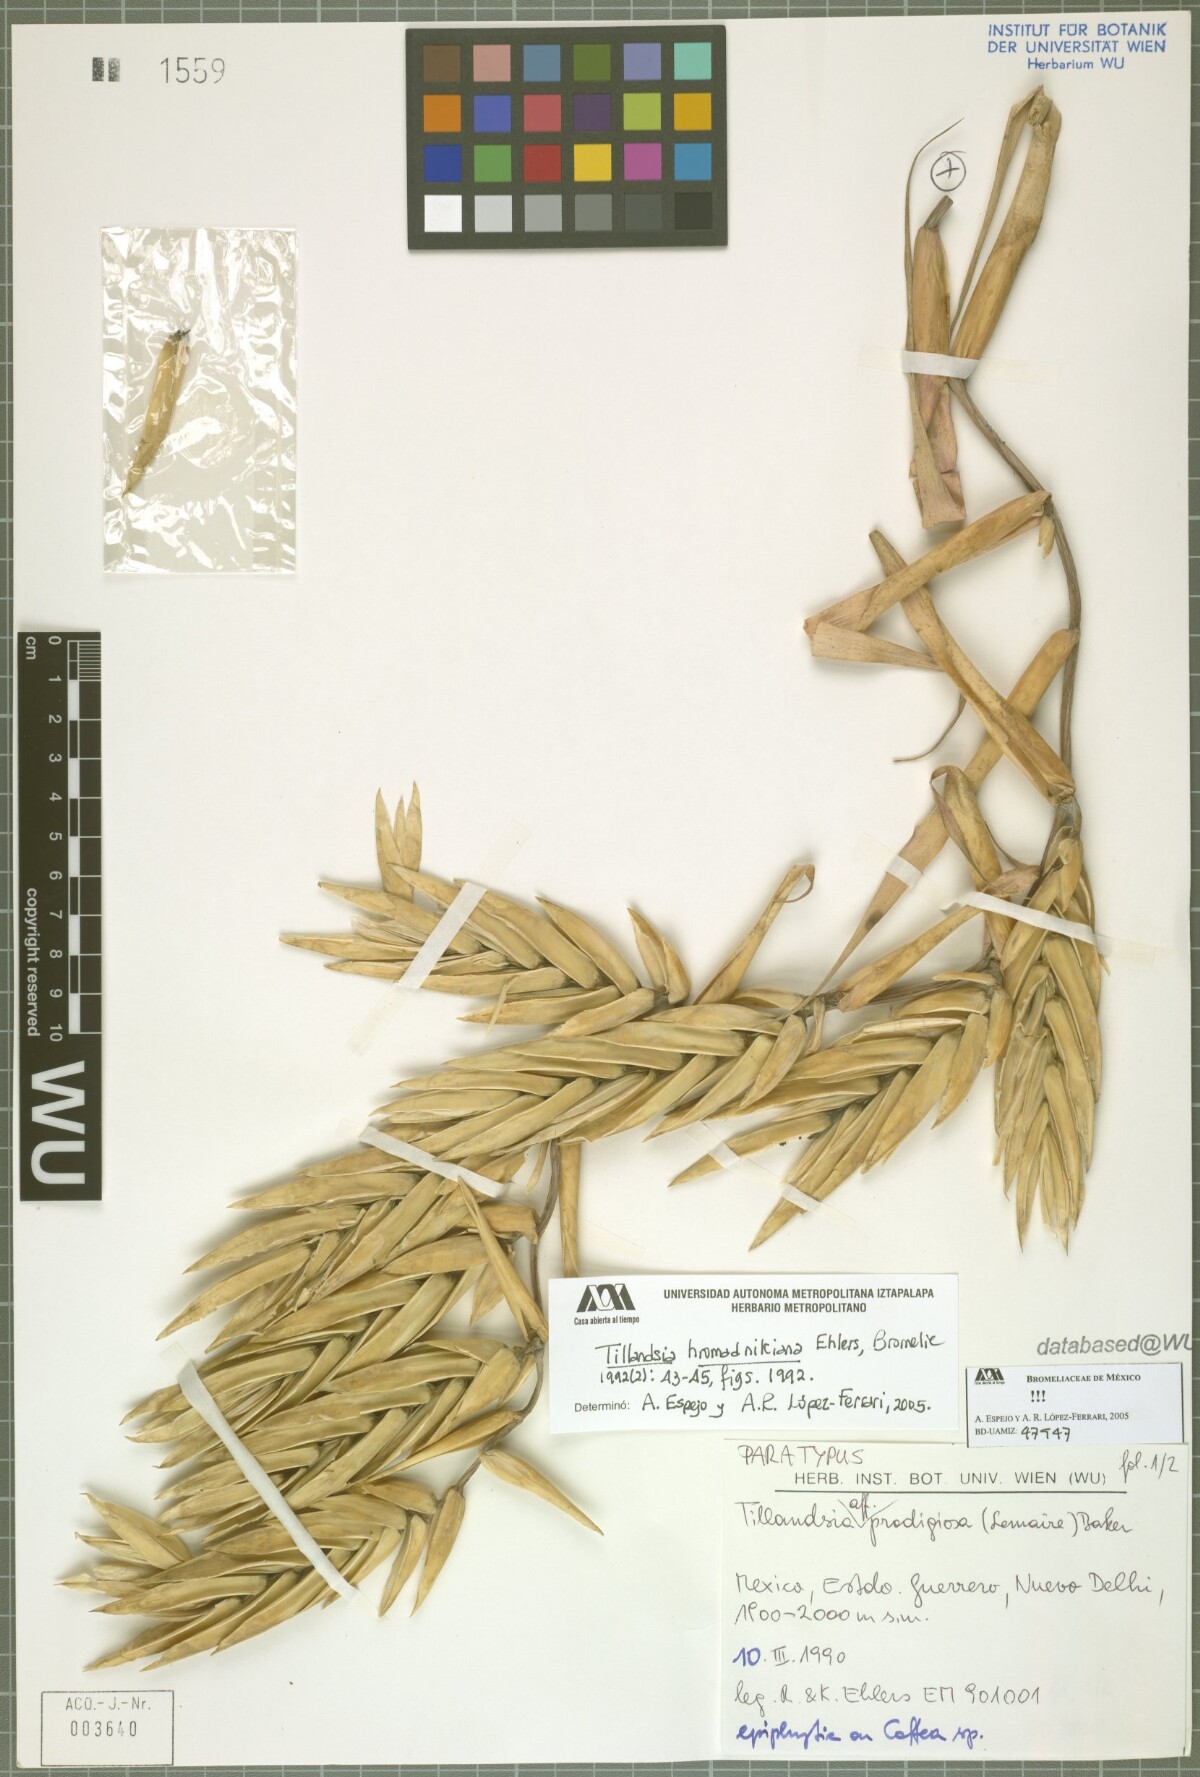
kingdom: Plantae
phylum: Tracheophyta
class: Liliopsida
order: Poales
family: Bromeliaceae
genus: Tillandsia
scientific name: Tillandsia prodigiosa
